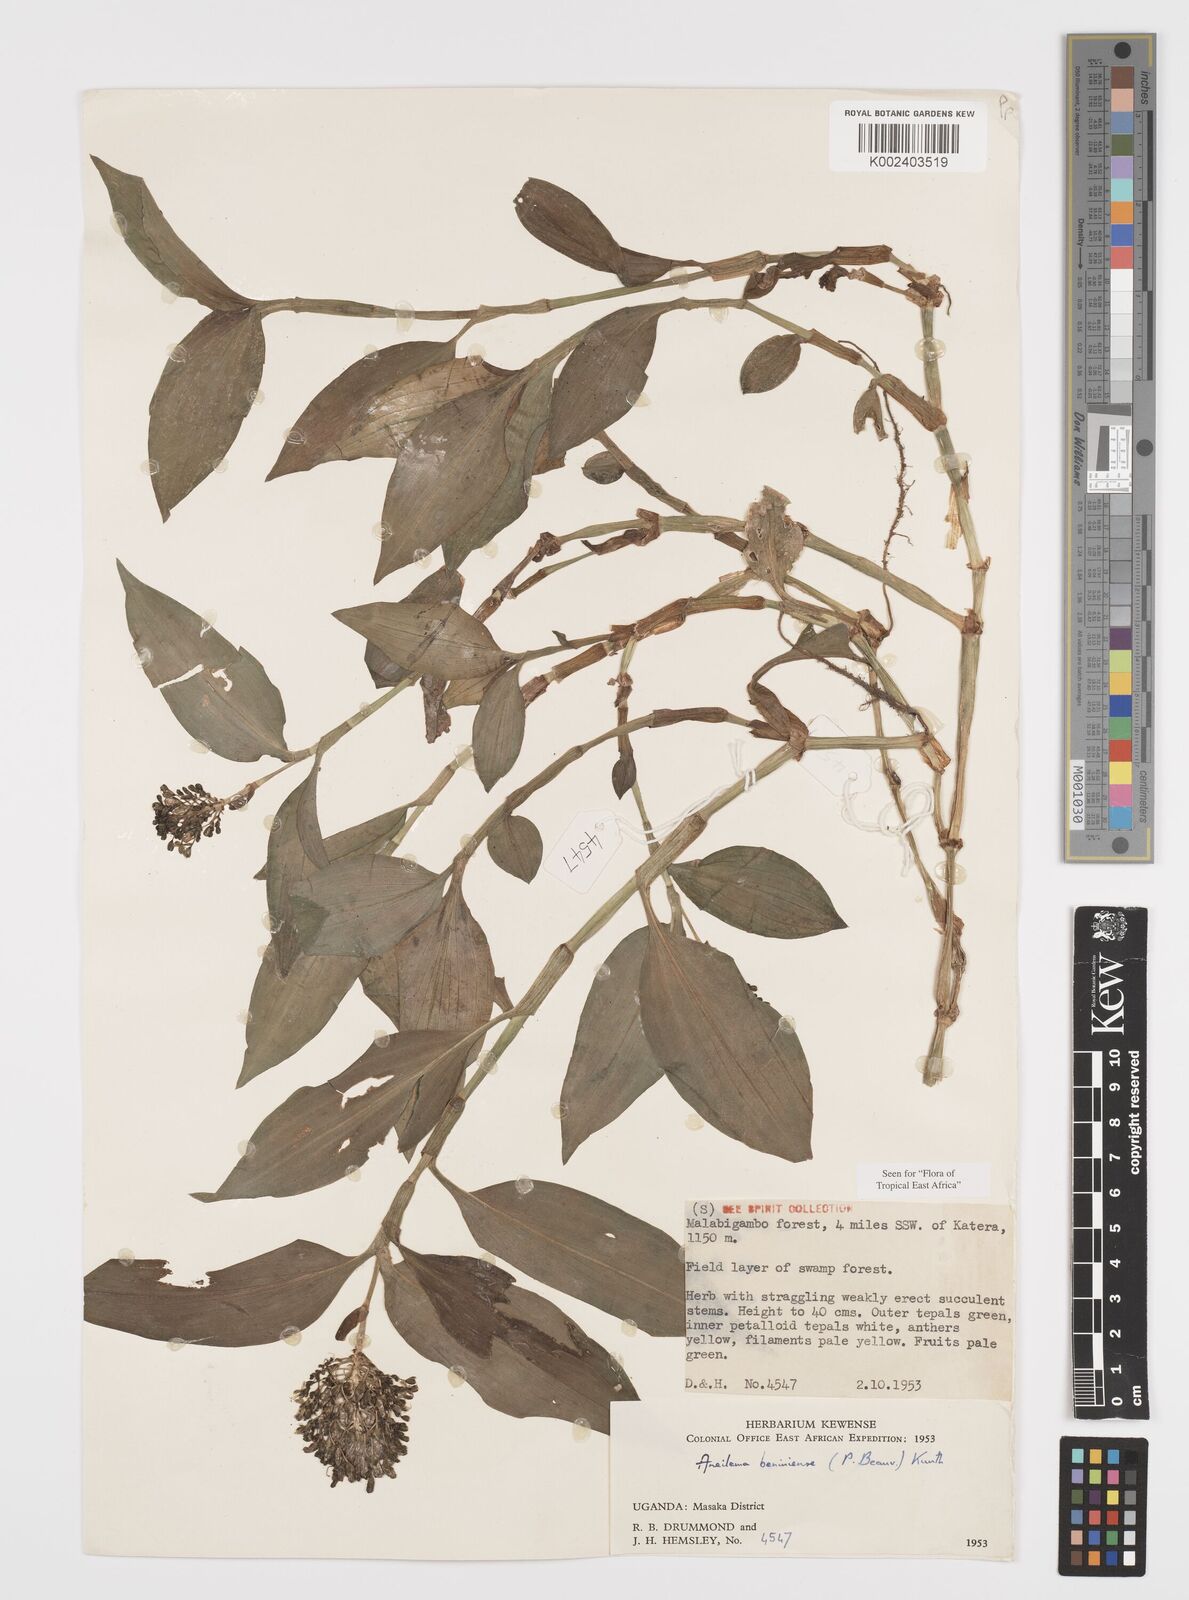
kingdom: Plantae
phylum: Tracheophyta
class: Liliopsida
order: Commelinales
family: Commelinaceae
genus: Aneilema
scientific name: Aneilema beniniense
